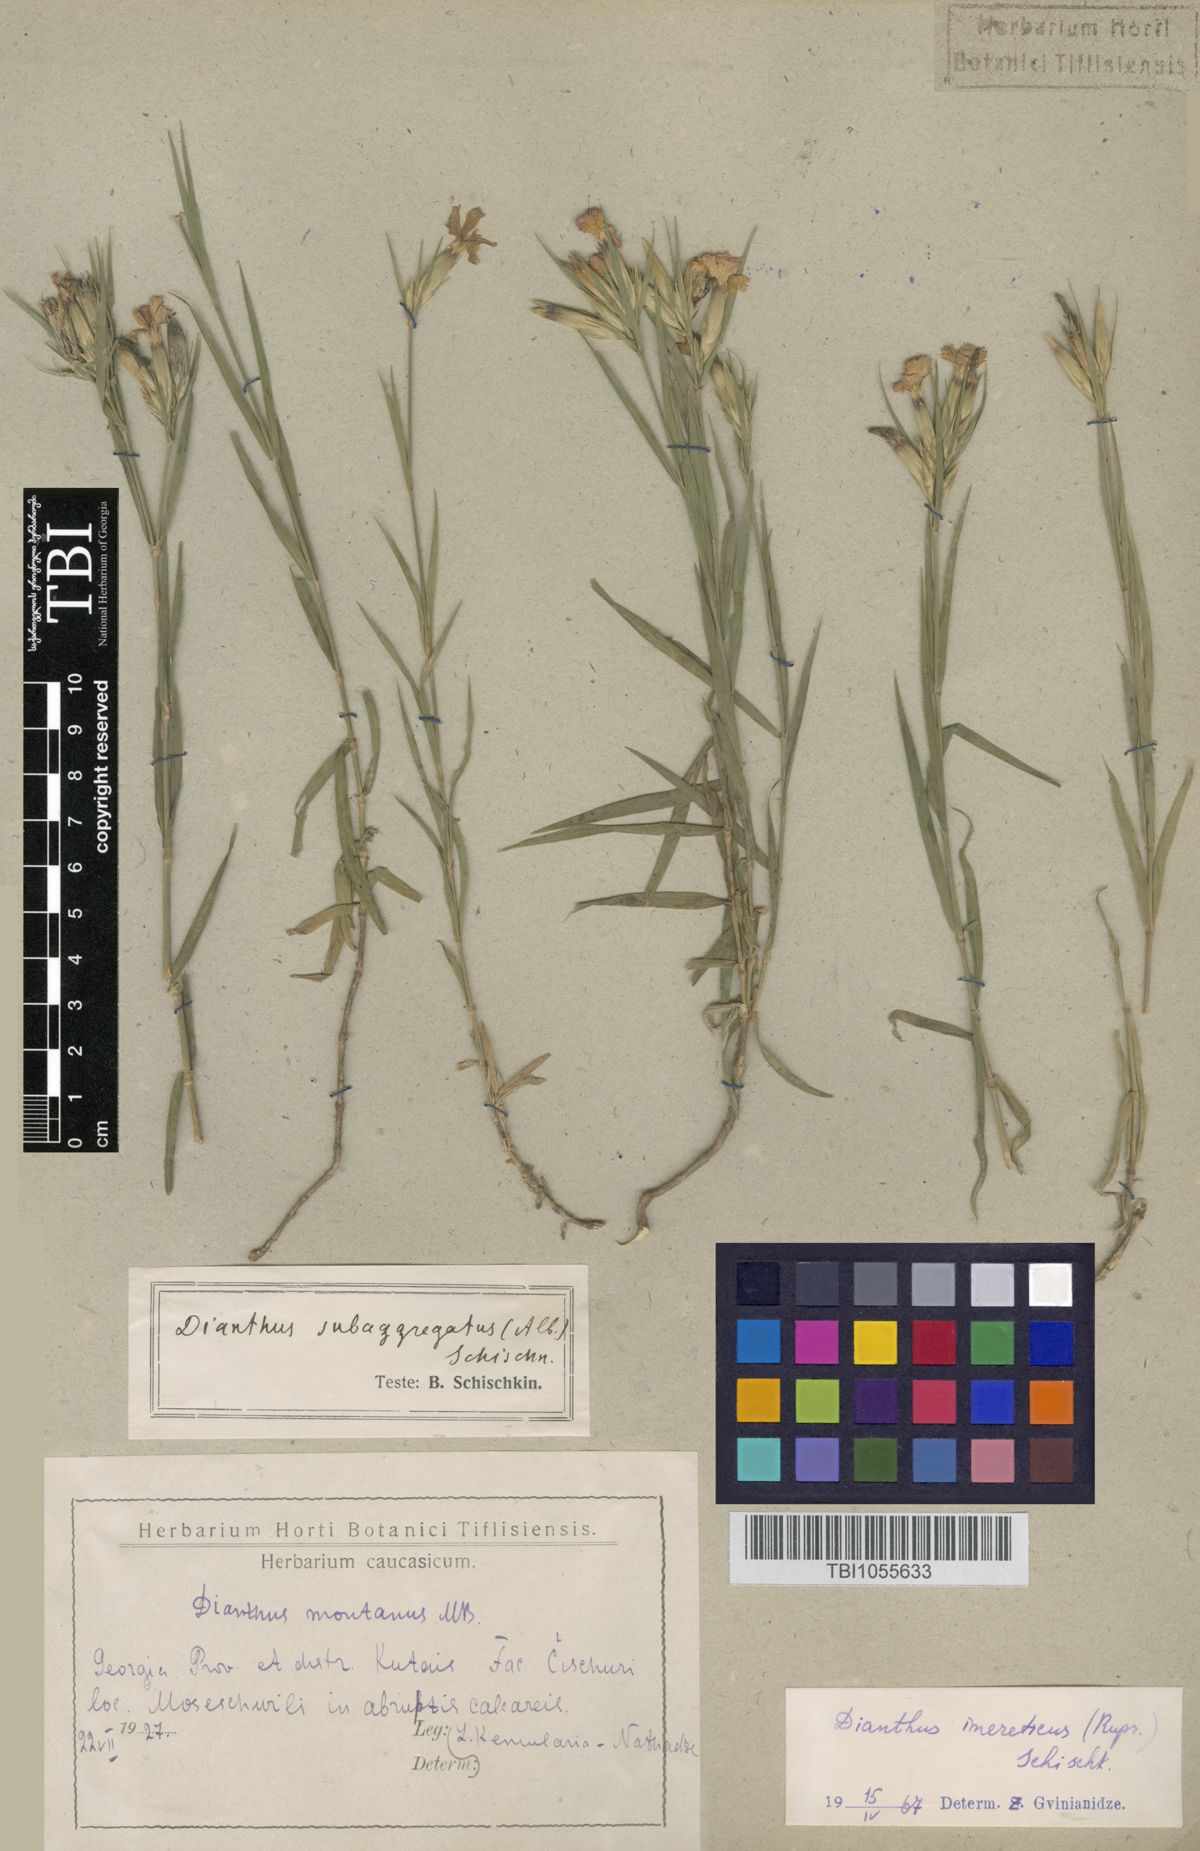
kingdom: Plantae
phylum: Tracheophyta
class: Magnoliopsida
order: Caryophyllales
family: Caryophyllaceae
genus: Dianthus
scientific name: Dianthus imereticus
